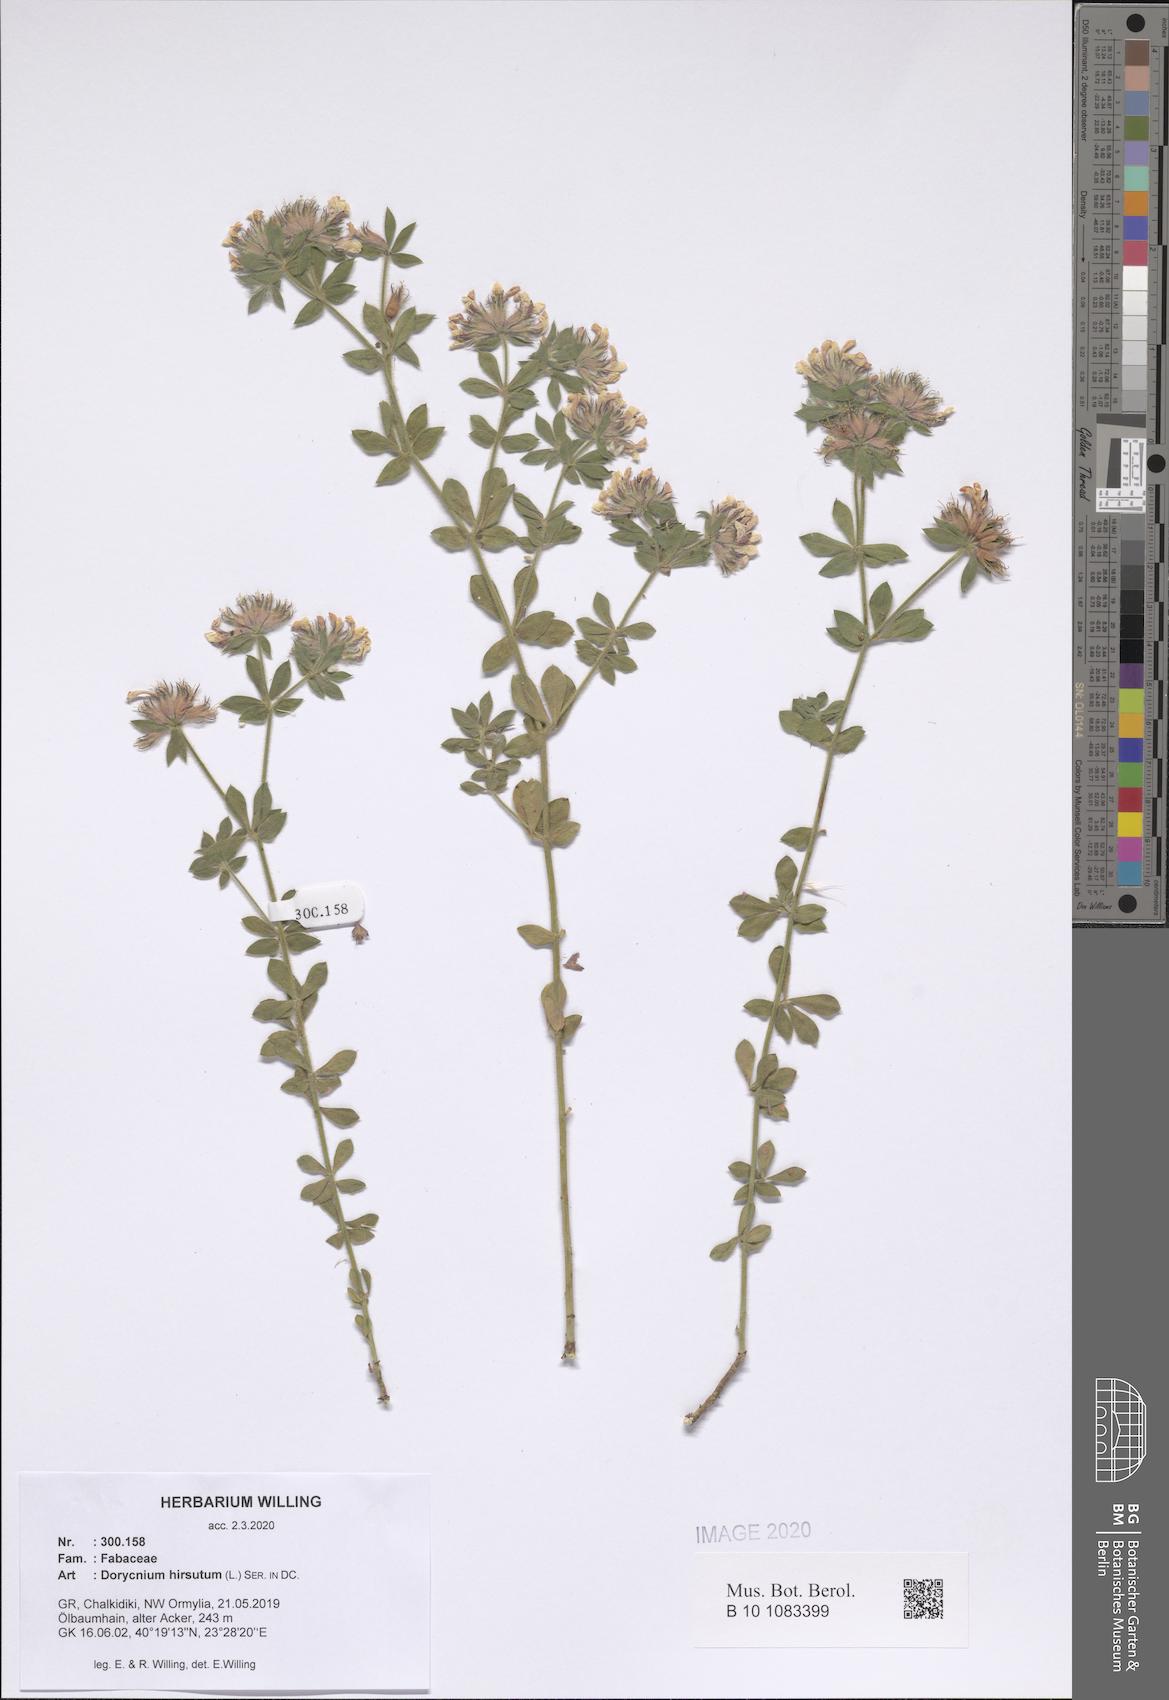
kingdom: Plantae
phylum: Tracheophyta
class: Magnoliopsida
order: Fabales
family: Fabaceae
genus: Lotus
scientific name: Lotus hirsutus
